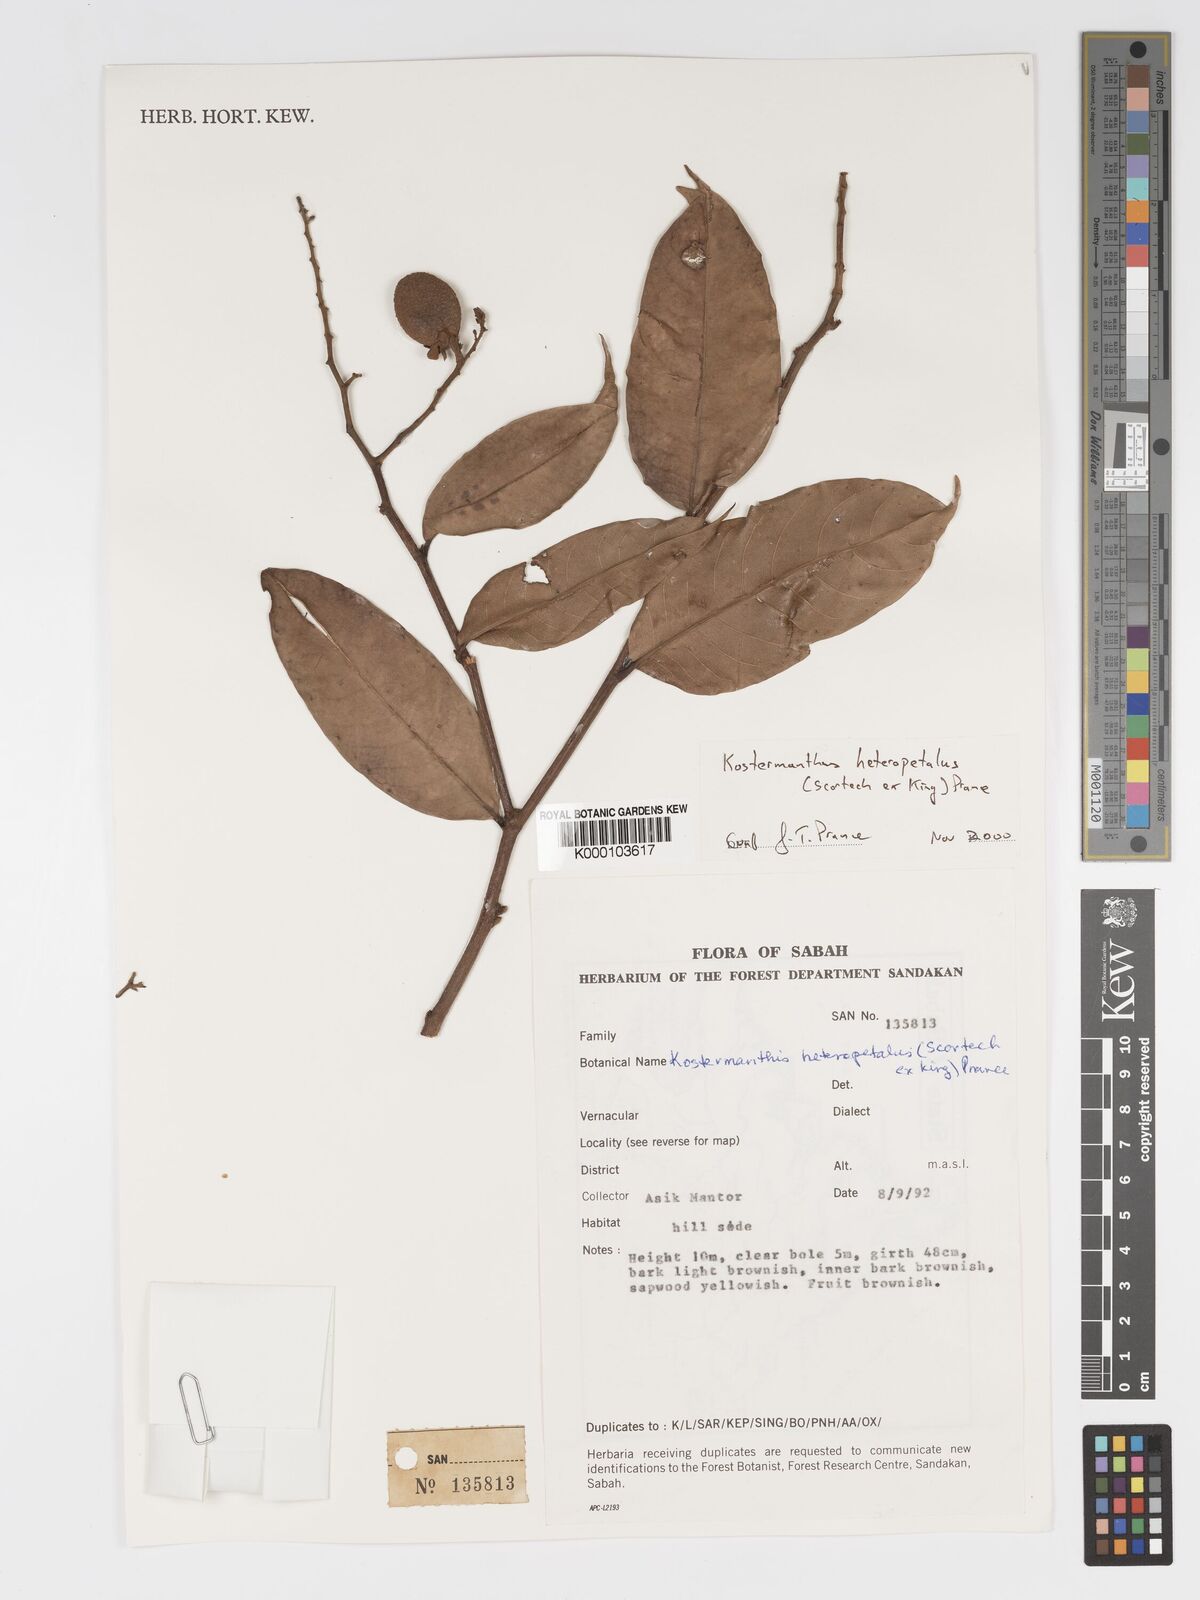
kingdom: Plantae
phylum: Tracheophyta
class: Magnoliopsida
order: Malpighiales
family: Chrysobalanaceae
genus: Kostermanthus
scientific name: Kostermanthus heteropetalus
